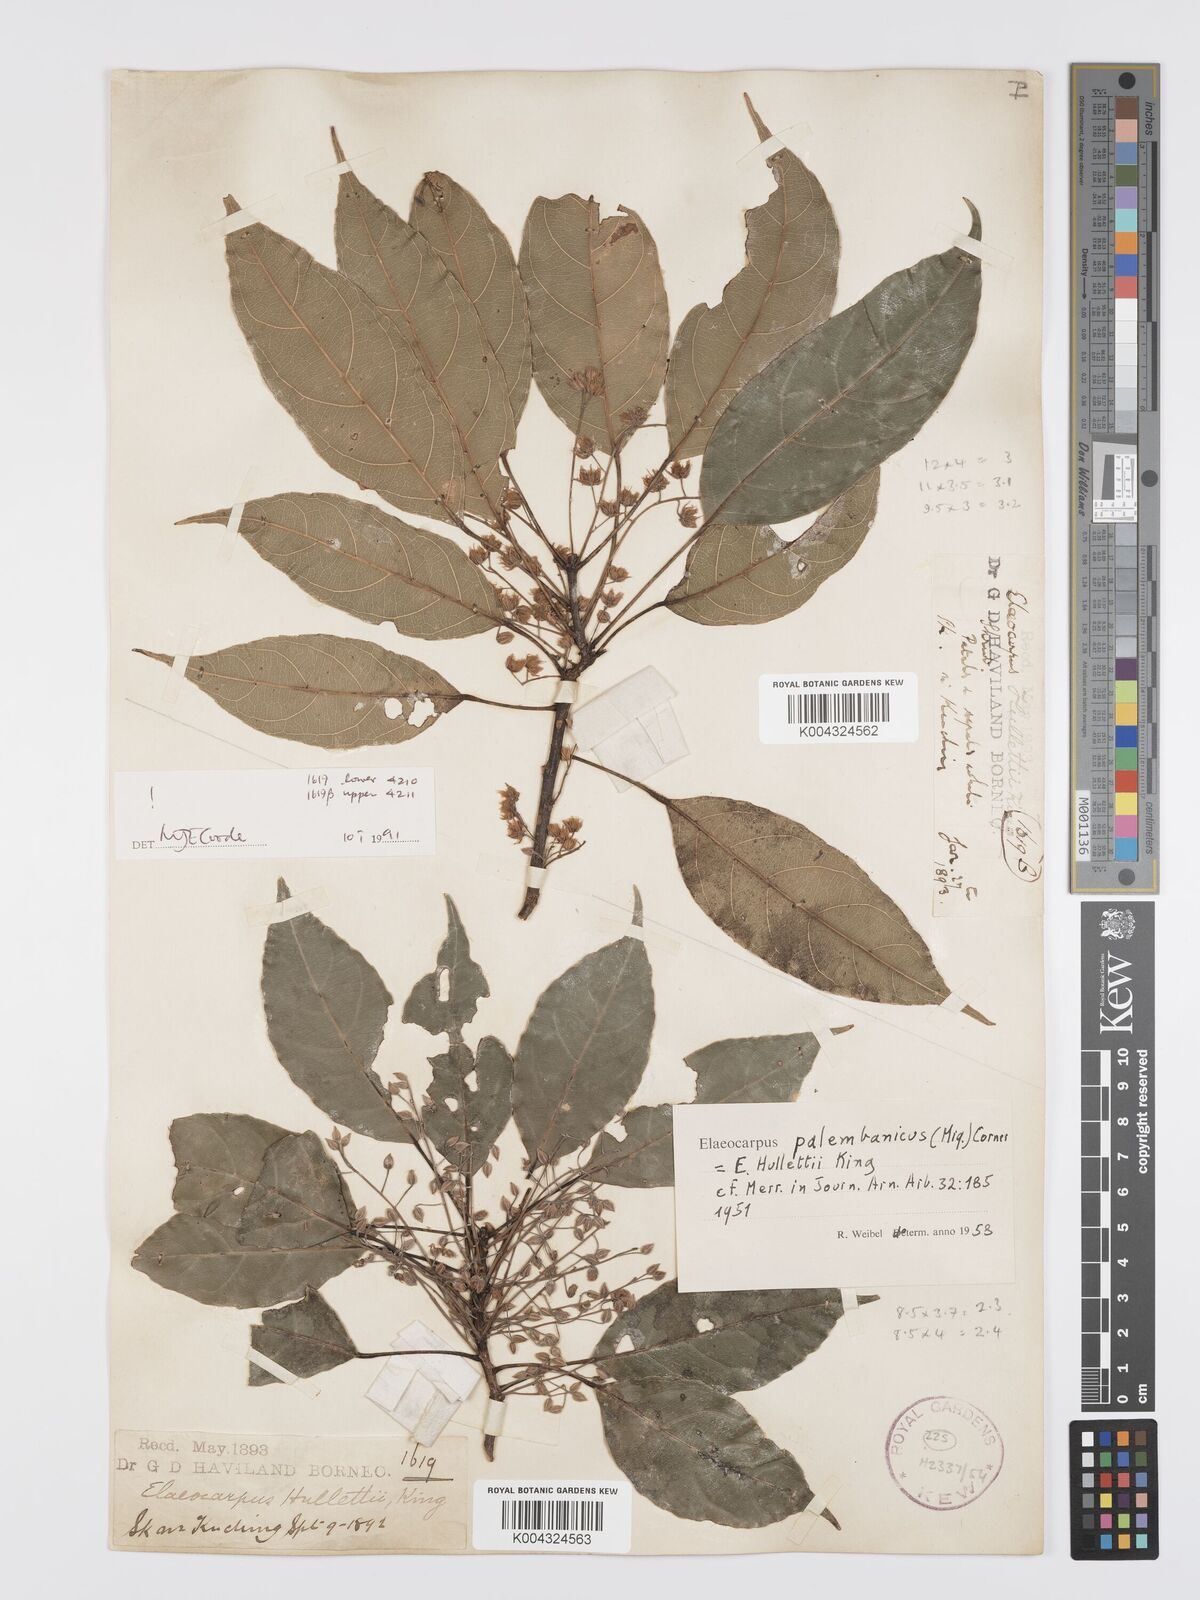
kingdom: Plantae
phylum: Tracheophyta
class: Magnoliopsida
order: Oxalidales
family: Elaeocarpaceae
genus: Elaeocarpus
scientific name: Elaeocarpus palembanicus
